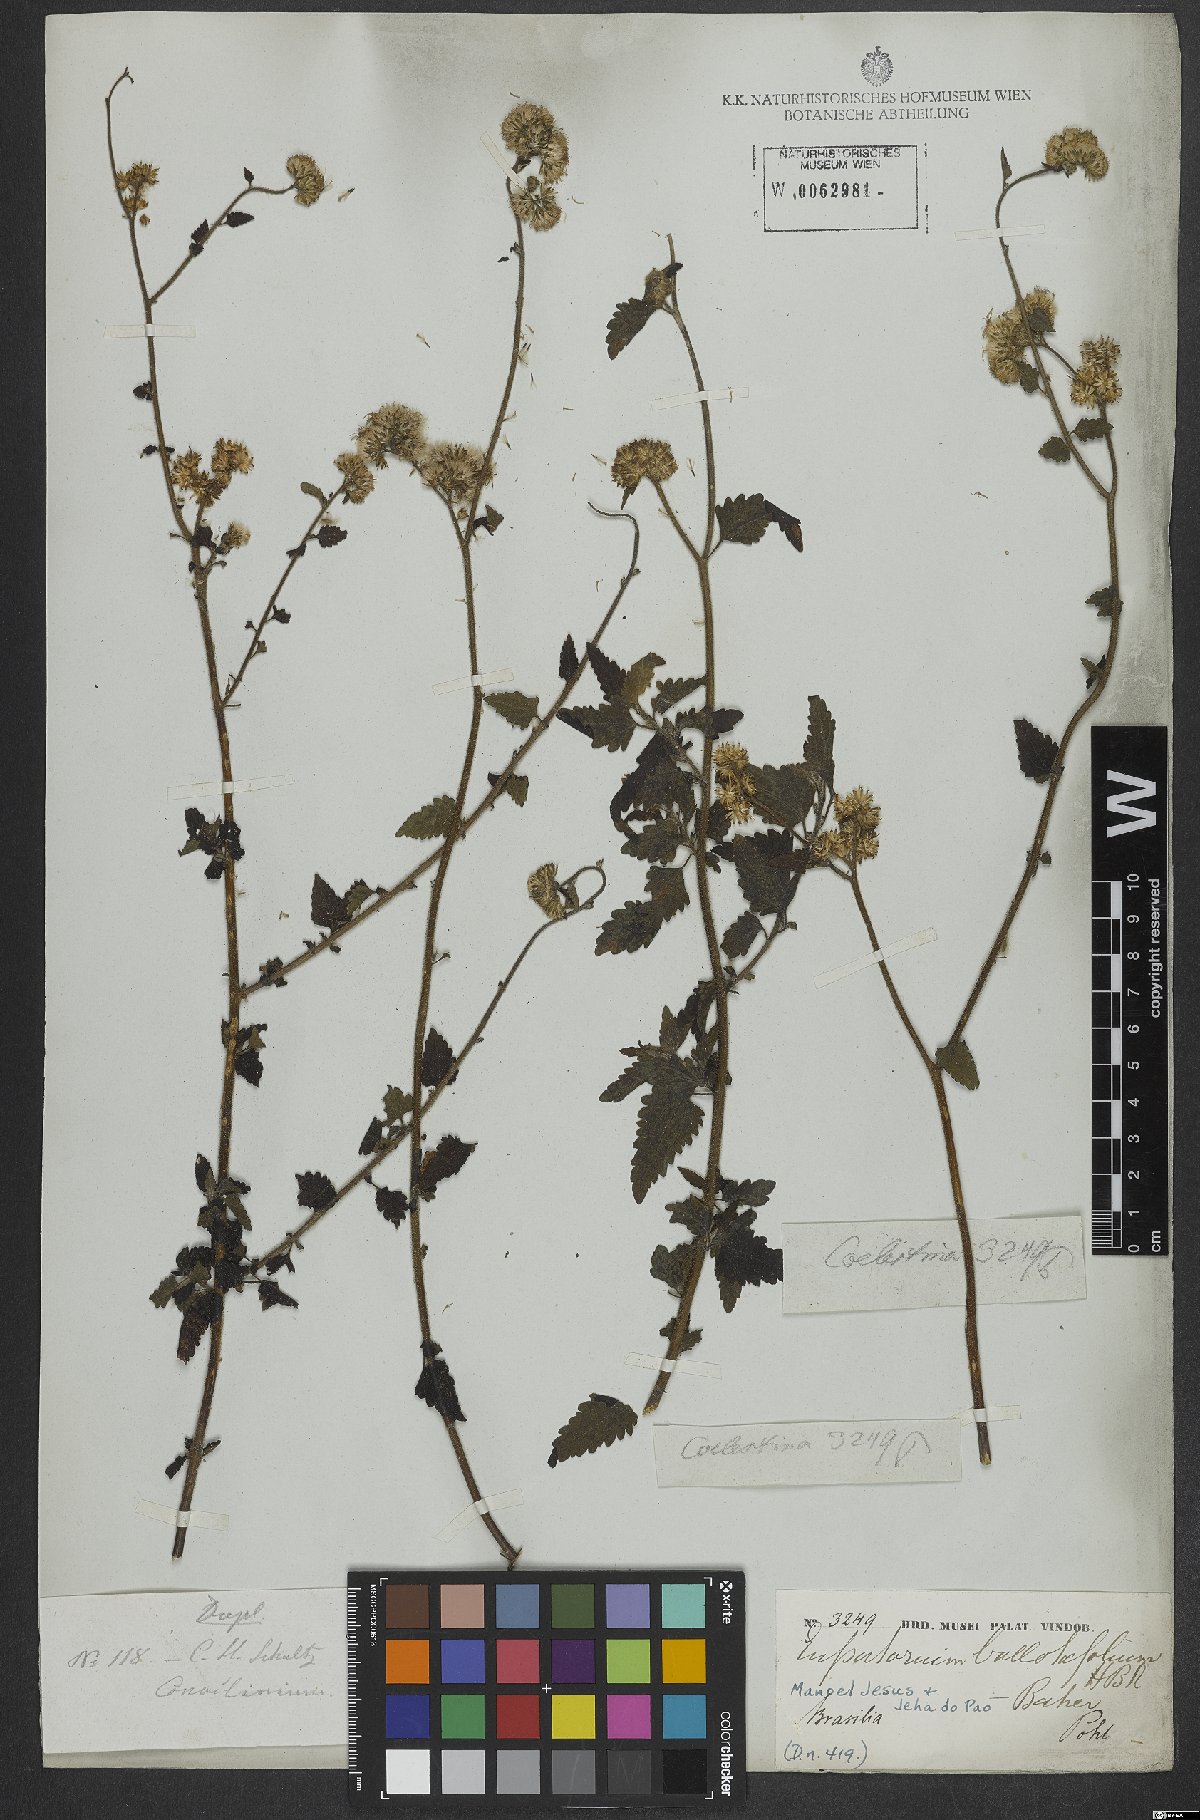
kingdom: Plantae
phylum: Tracheophyta
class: Magnoliopsida
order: Asterales
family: Asteraceae
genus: Lourteigia
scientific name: Lourteigia ballotifolia
